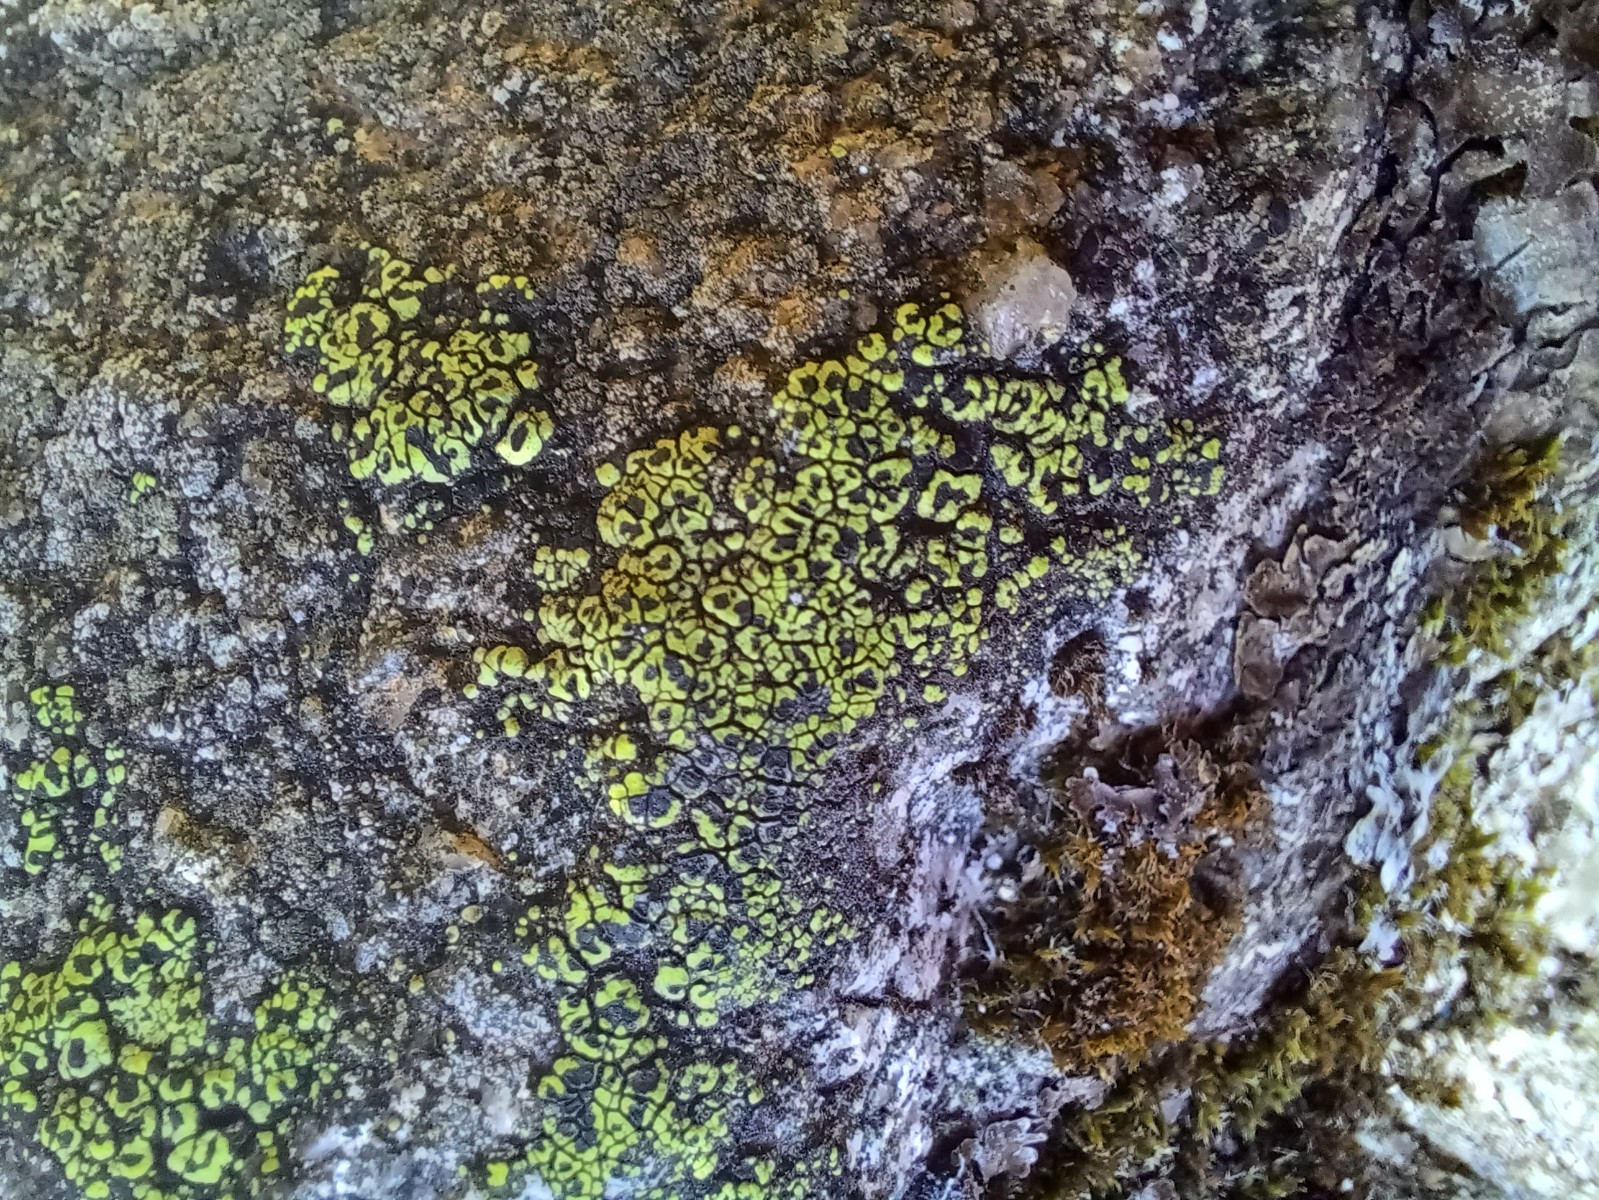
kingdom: Fungi
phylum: Ascomycota
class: Lecanoromycetes
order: Rhizocarpales
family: Rhizocarpaceae
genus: Rhizocarpon
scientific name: Rhizocarpon lecanorinum
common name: krave-landkortlav
